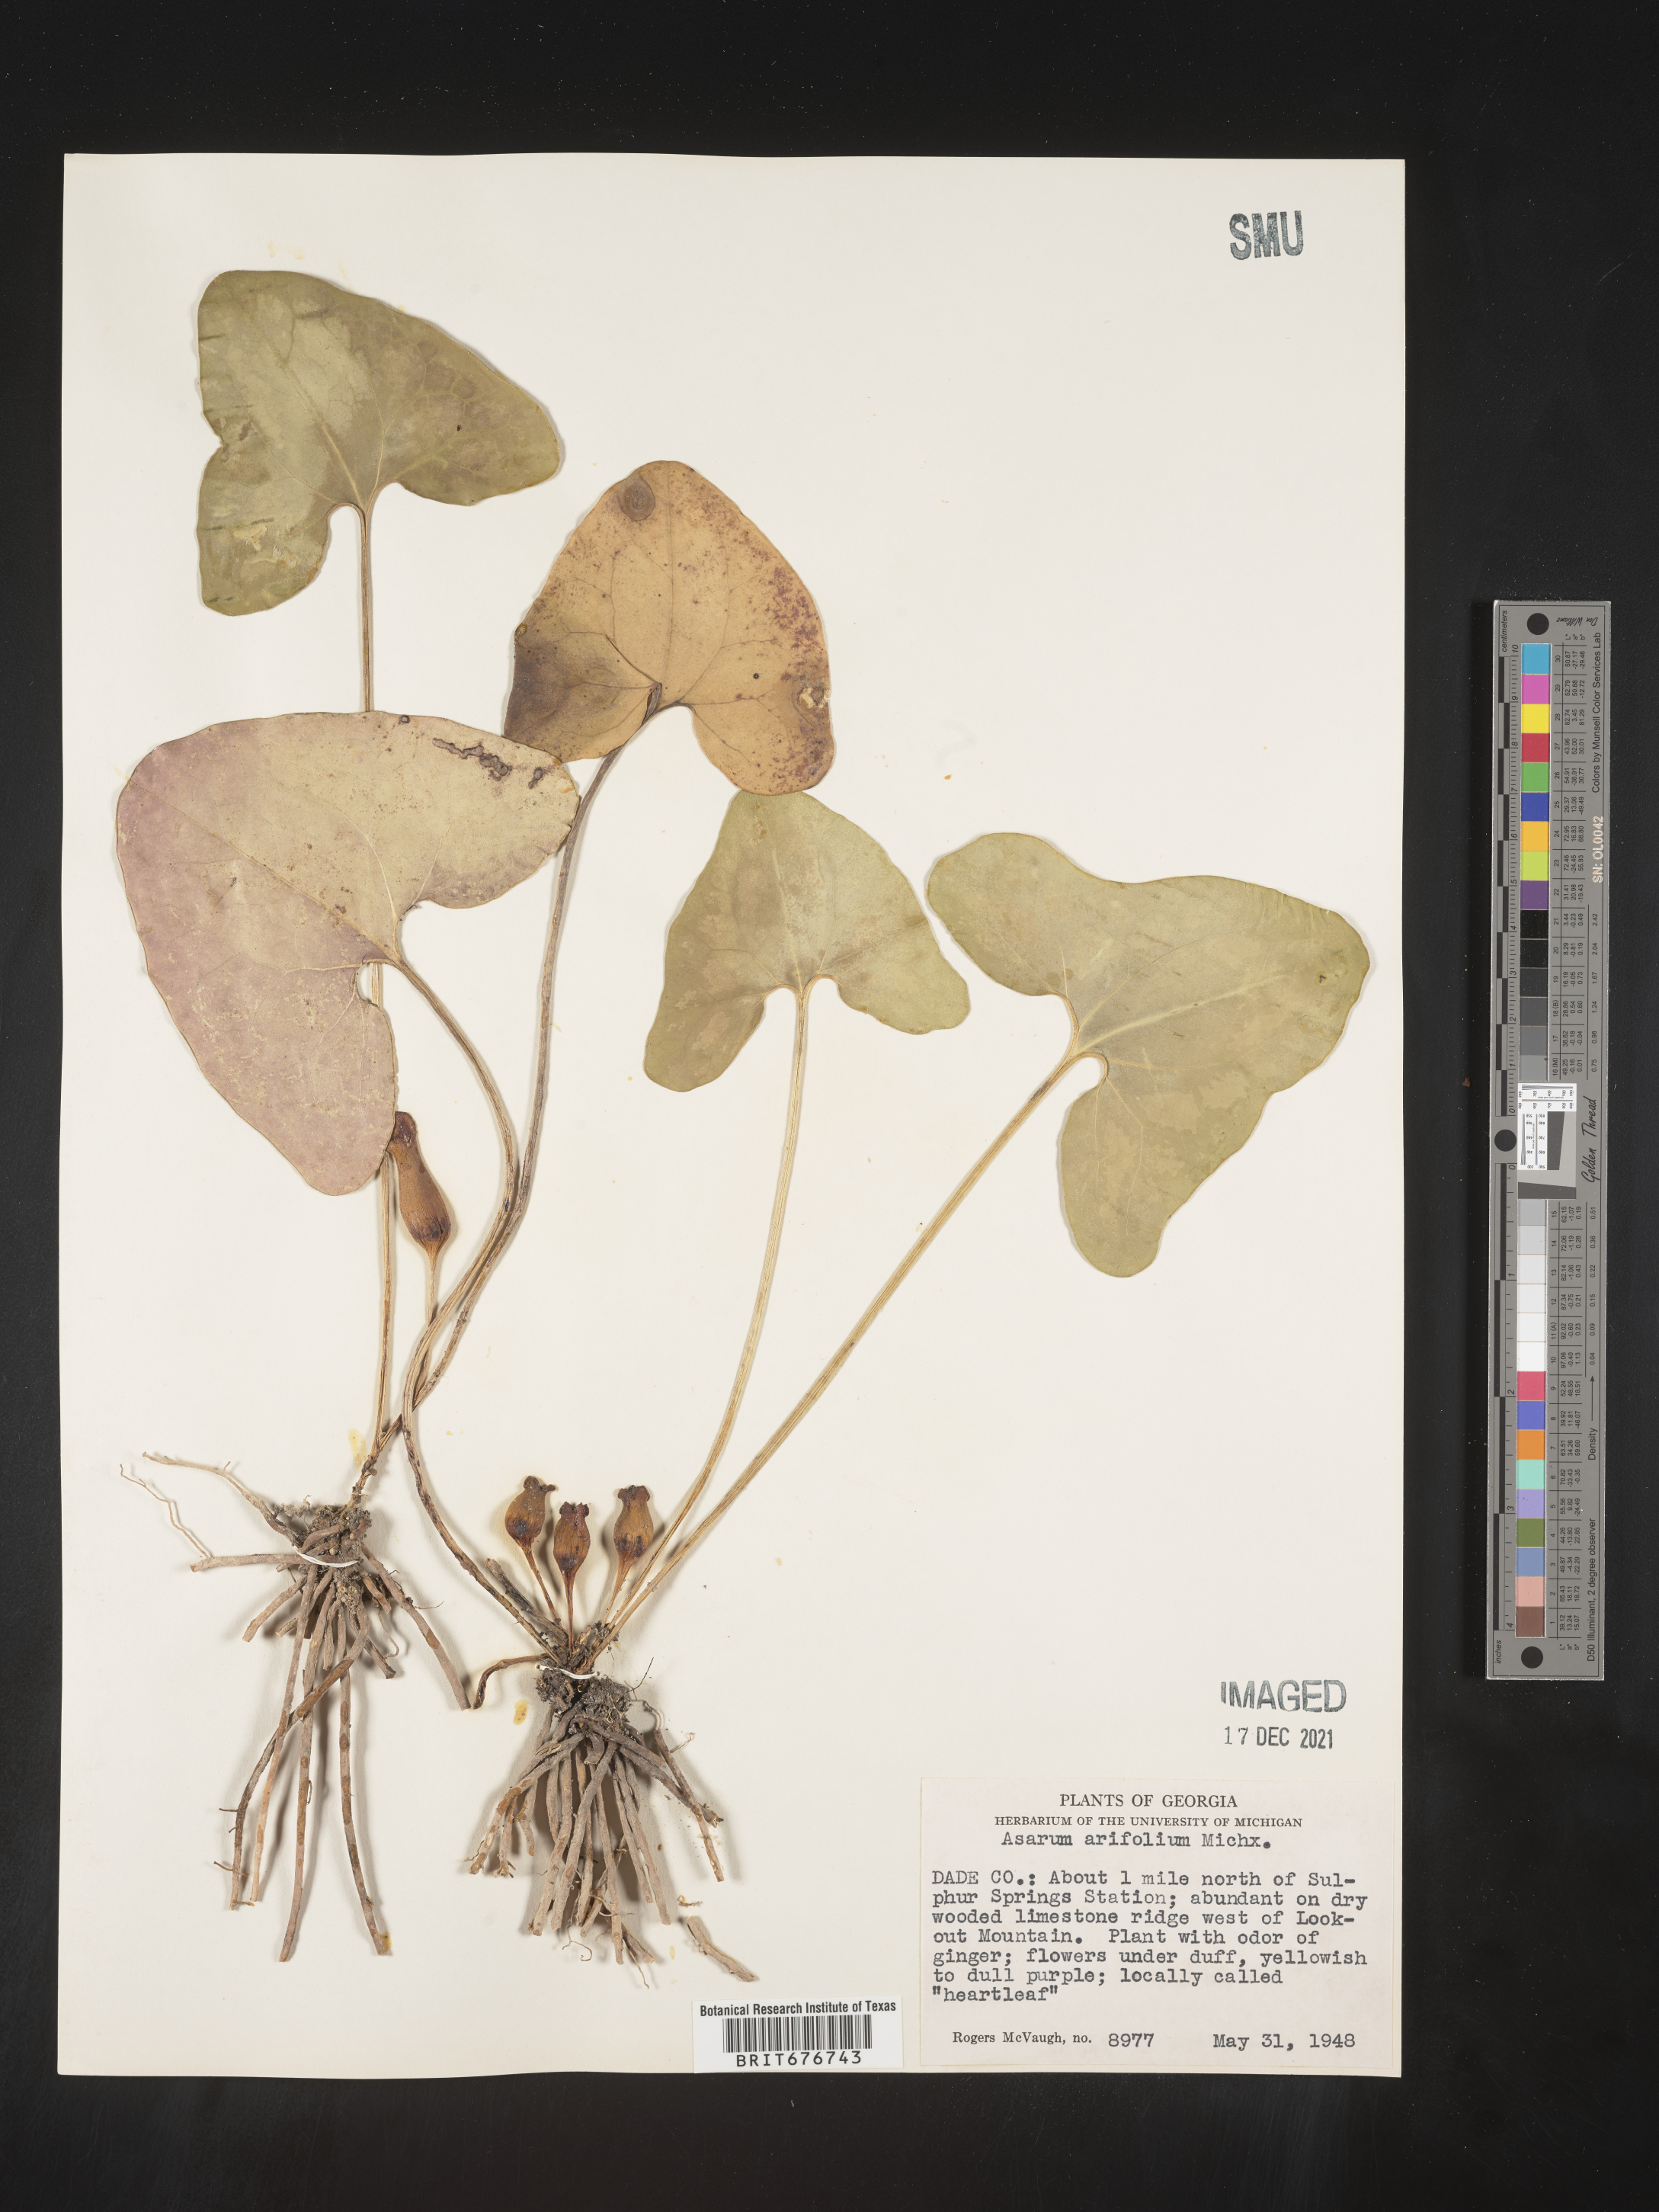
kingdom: Plantae
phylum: Tracheophyta
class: Magnoliopsida
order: Piperales
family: Aristolochiaceae
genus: Hexastylis
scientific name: Hexastylis arifolia
